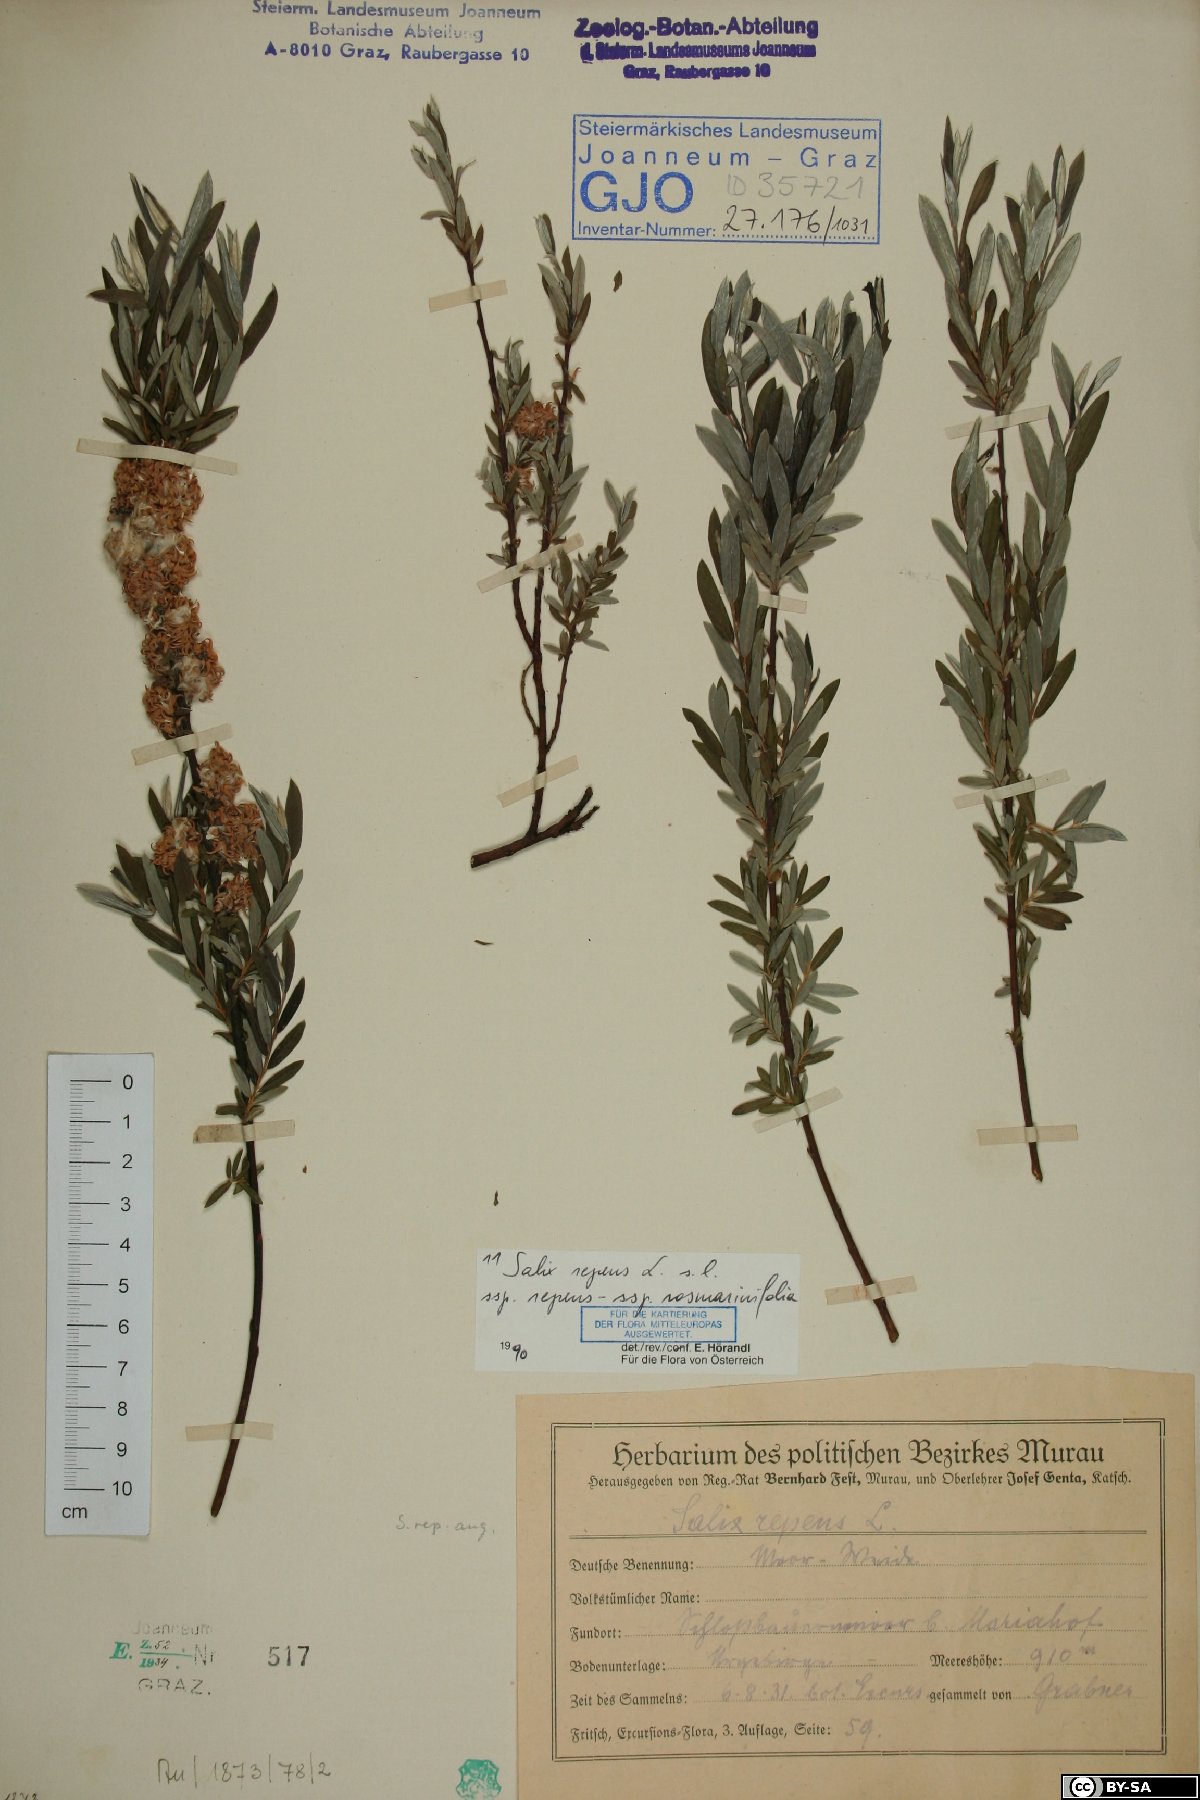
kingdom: Plantae
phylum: Tracheophyta
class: Magnoliopsida
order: Malpighiales
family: Salicaceae
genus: Salix
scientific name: Salix repens
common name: Creeping willow
